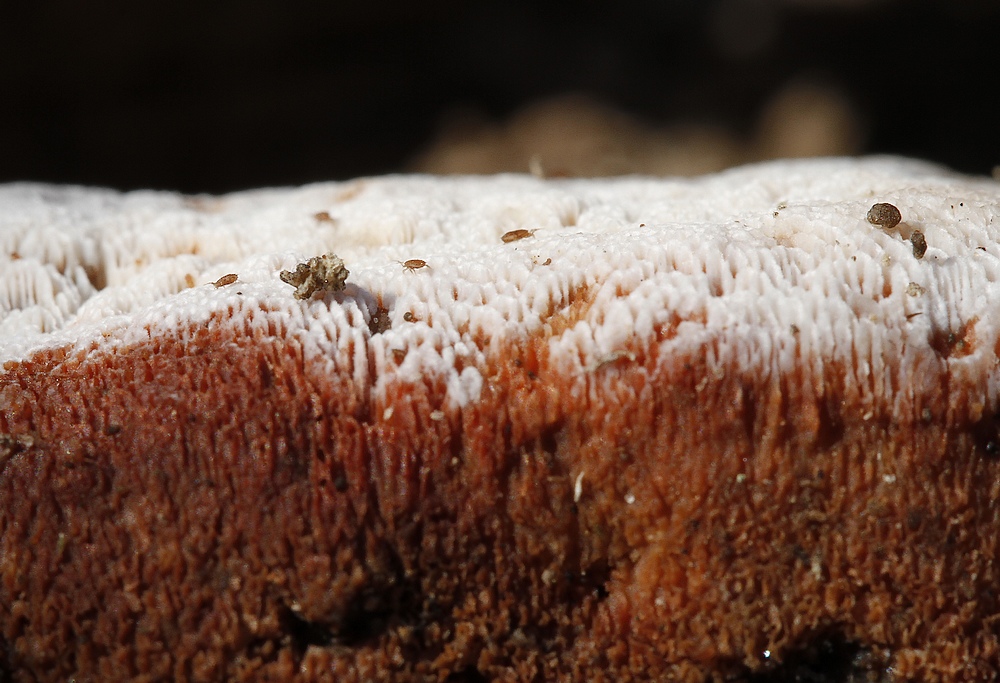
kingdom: Fungi
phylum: Basidiomycota
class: Agaricomycetes
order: Polyporales
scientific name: Polyporales
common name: poresvampordenen
